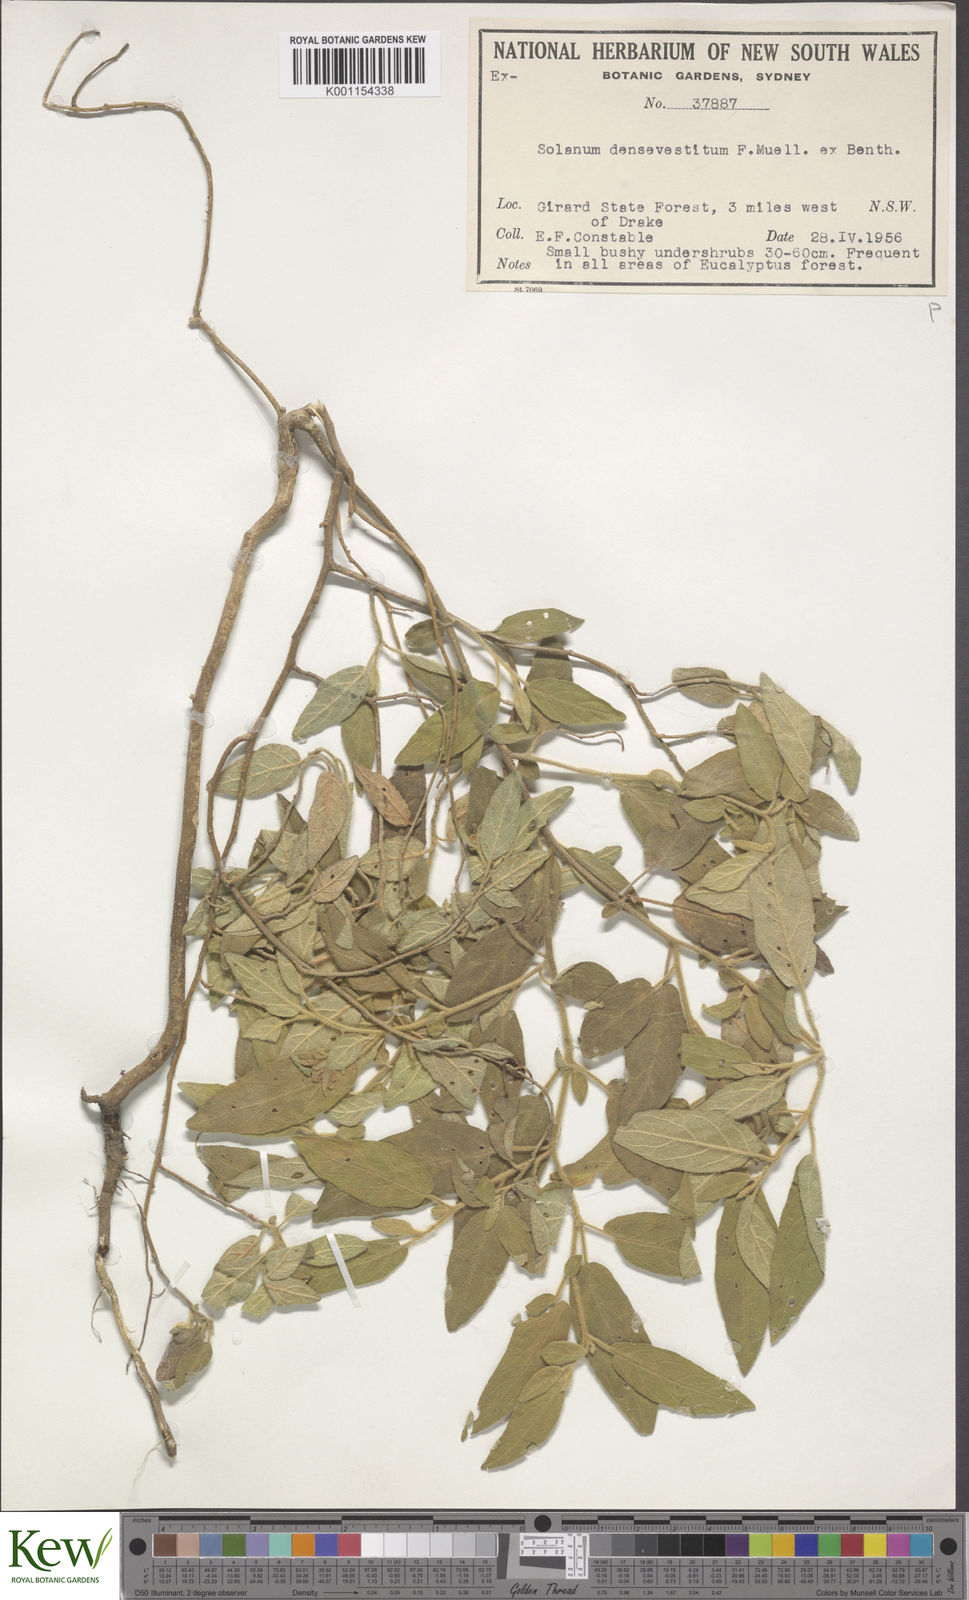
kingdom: Plantae
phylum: Tracheophyta
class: Magnoliopsida
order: Solanales
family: Solanaceae
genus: Solanum
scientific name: Solanum densevestitum
